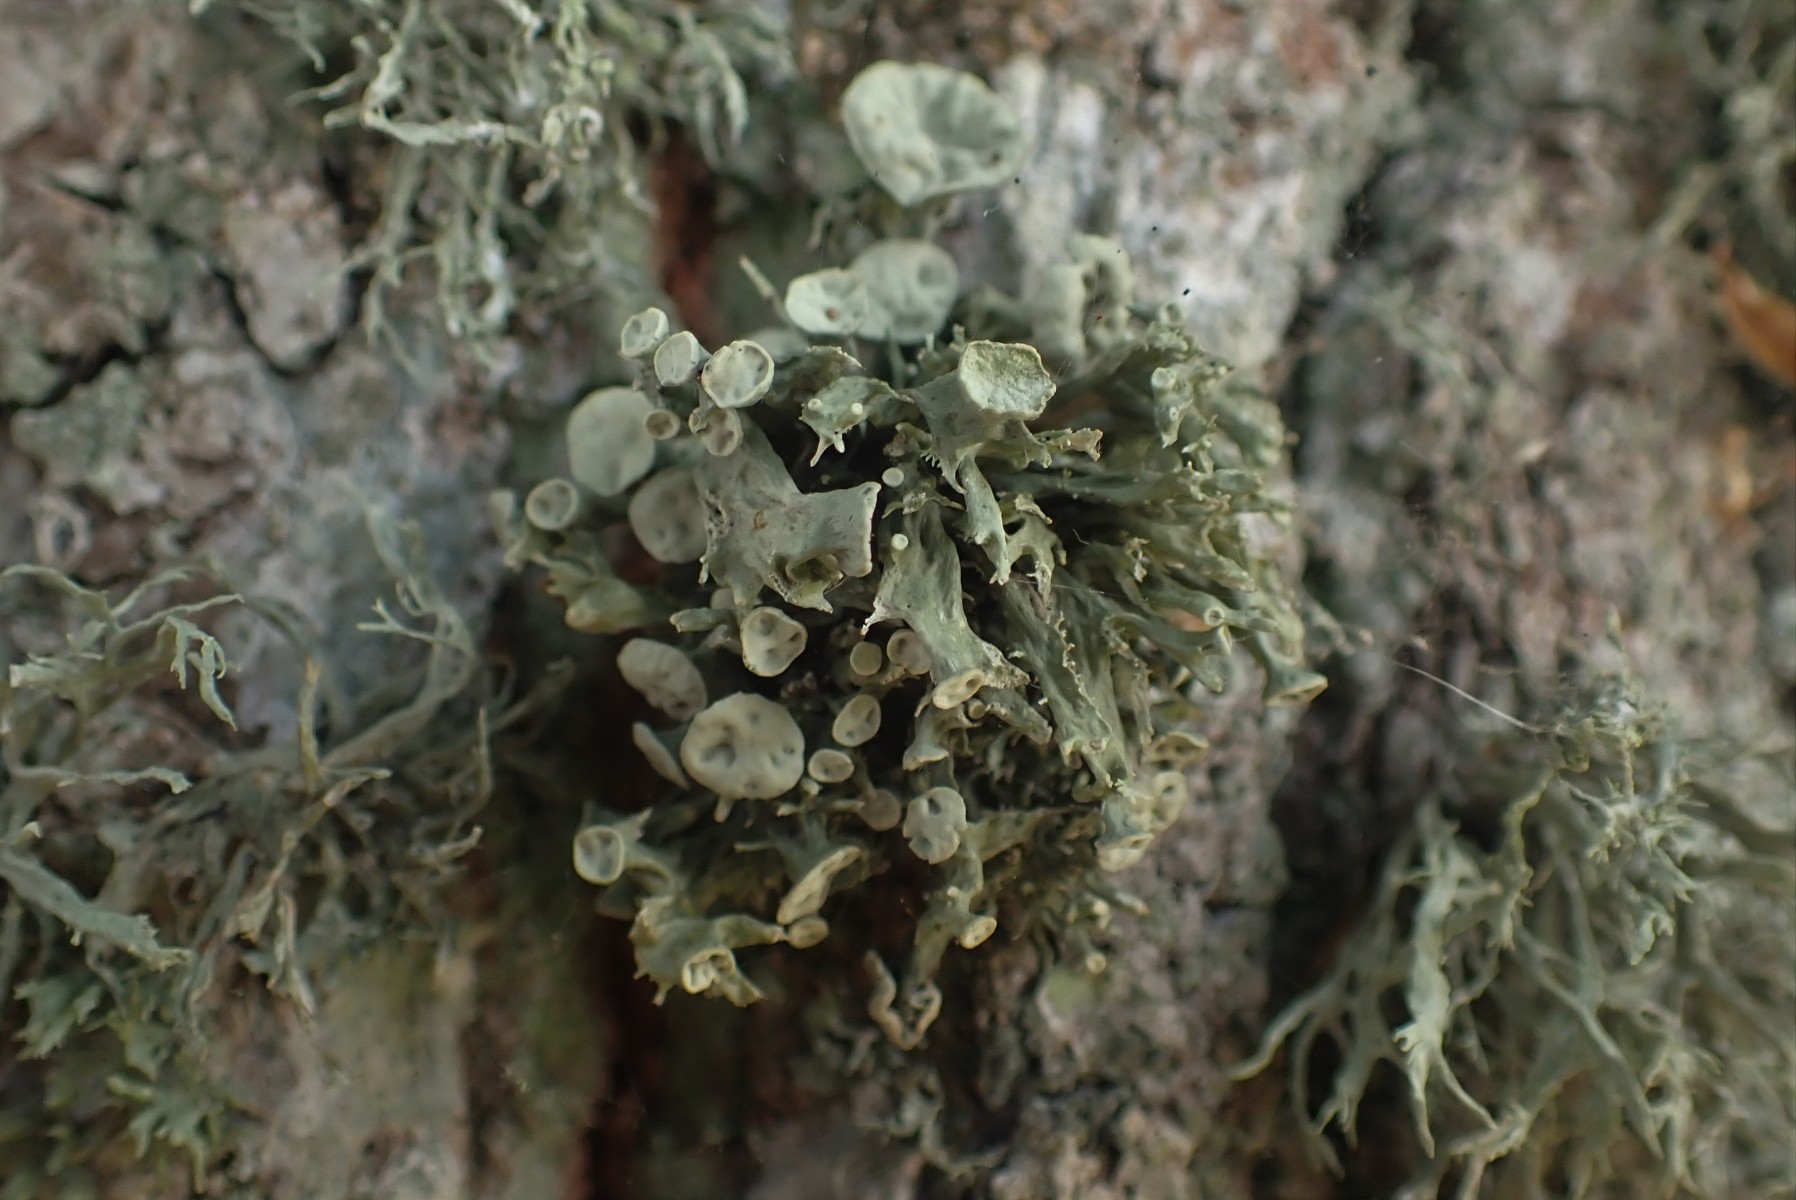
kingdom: Fungi
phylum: Ascomycota
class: Lecanoromycetes
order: Lecanorales
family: Ramalinaceae
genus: Ramalina
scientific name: Ramalina fastigiata
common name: tue-grenlav
